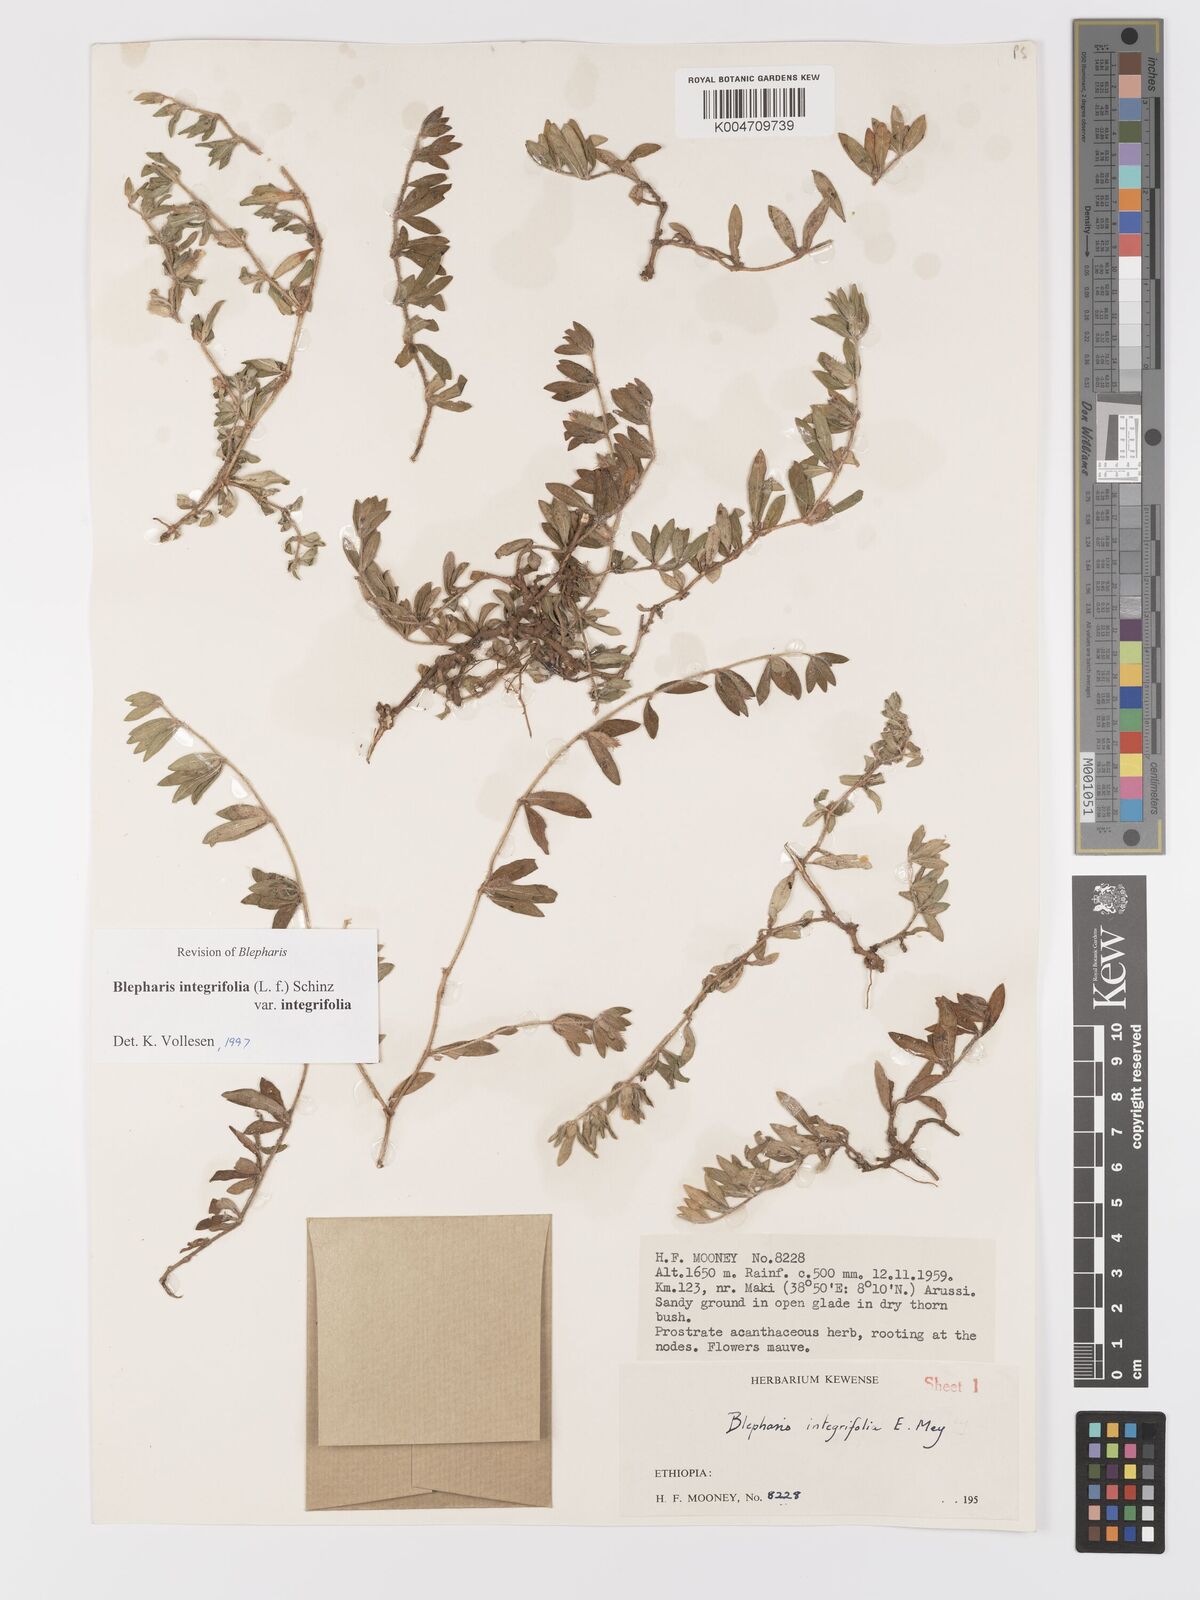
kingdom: Plantae
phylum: Tracheophyta
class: Magnoliopsida
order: Lamiales
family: Acanthaceae
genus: Blepharis
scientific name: Blepharis integrifolia
